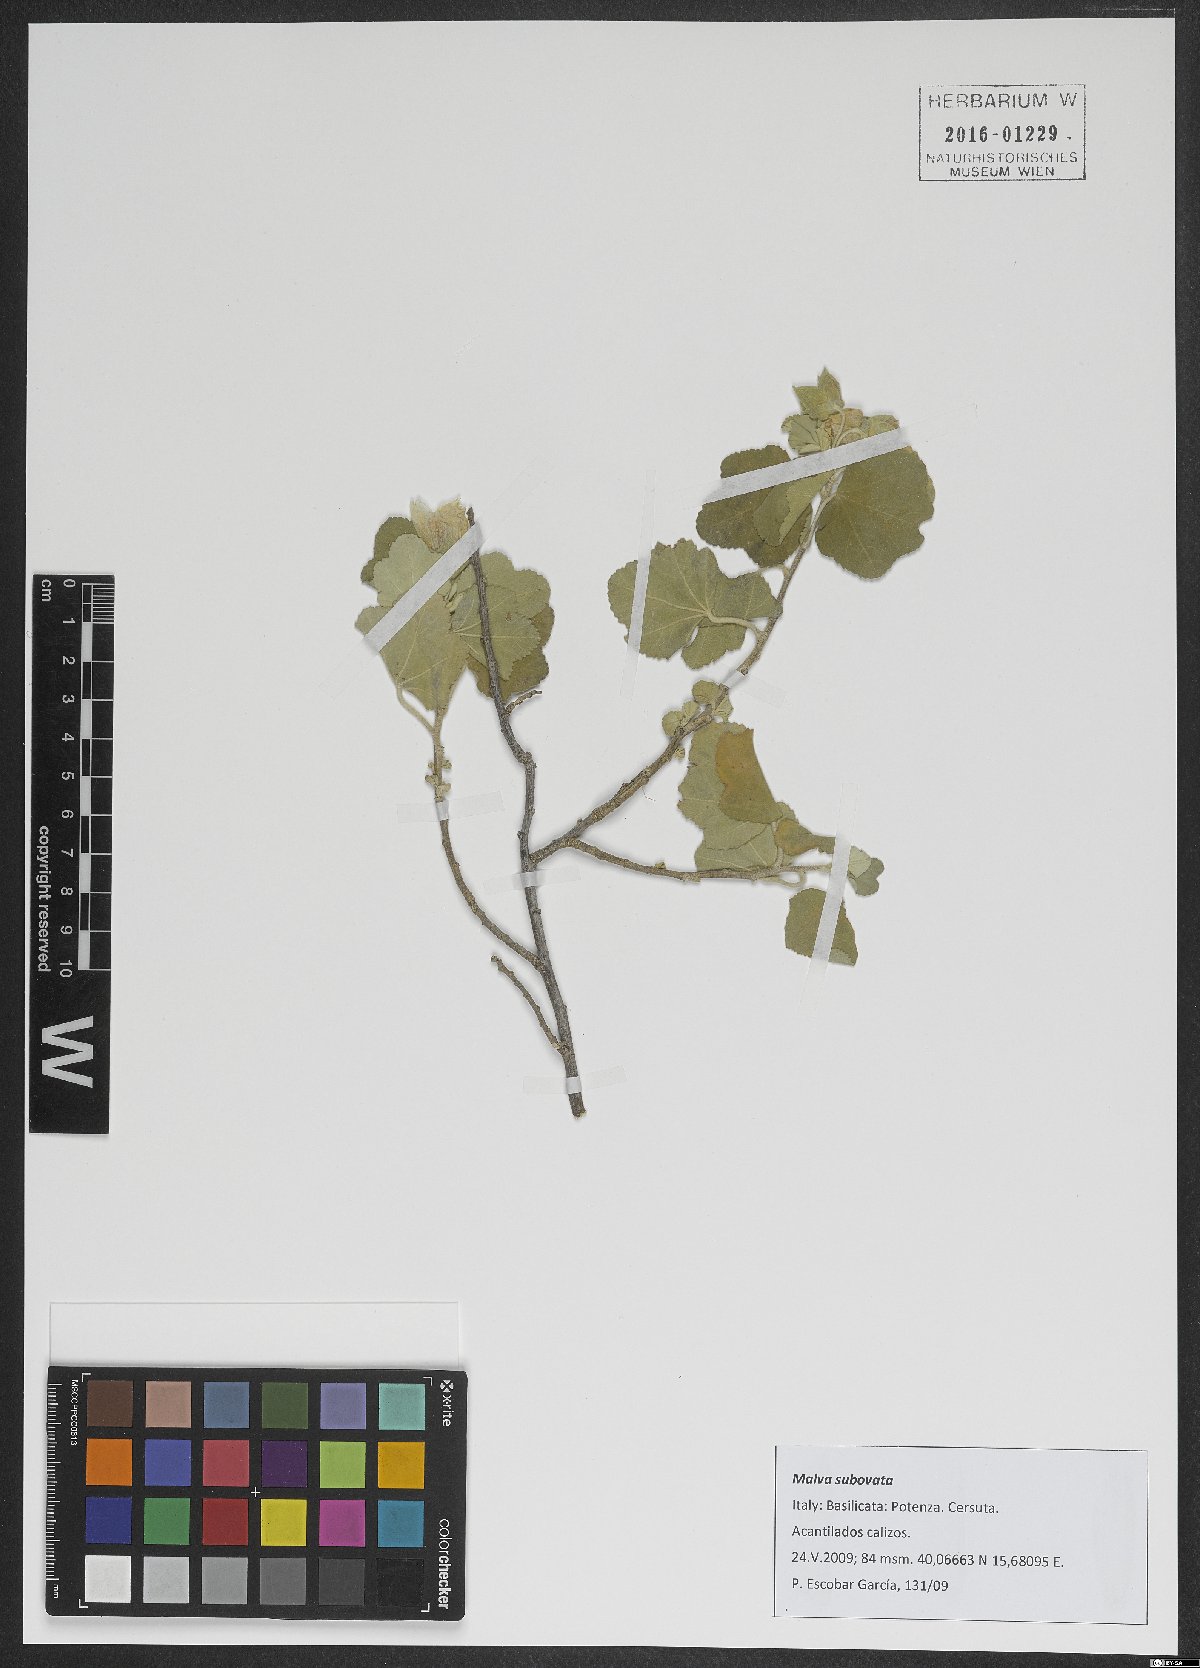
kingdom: Plantae
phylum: Tracheophyta
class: Magnoliopsida
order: Malvales
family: Malvaceae
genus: Malva
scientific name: Malva subovata
